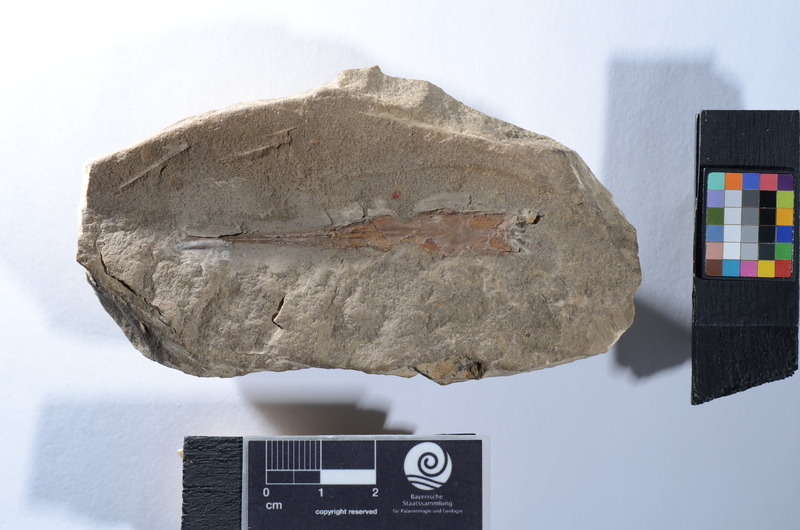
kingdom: Animalia
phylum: Chordata
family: Saurichthyidae
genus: Saurichthys
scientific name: Saurichthys tenuirostris
